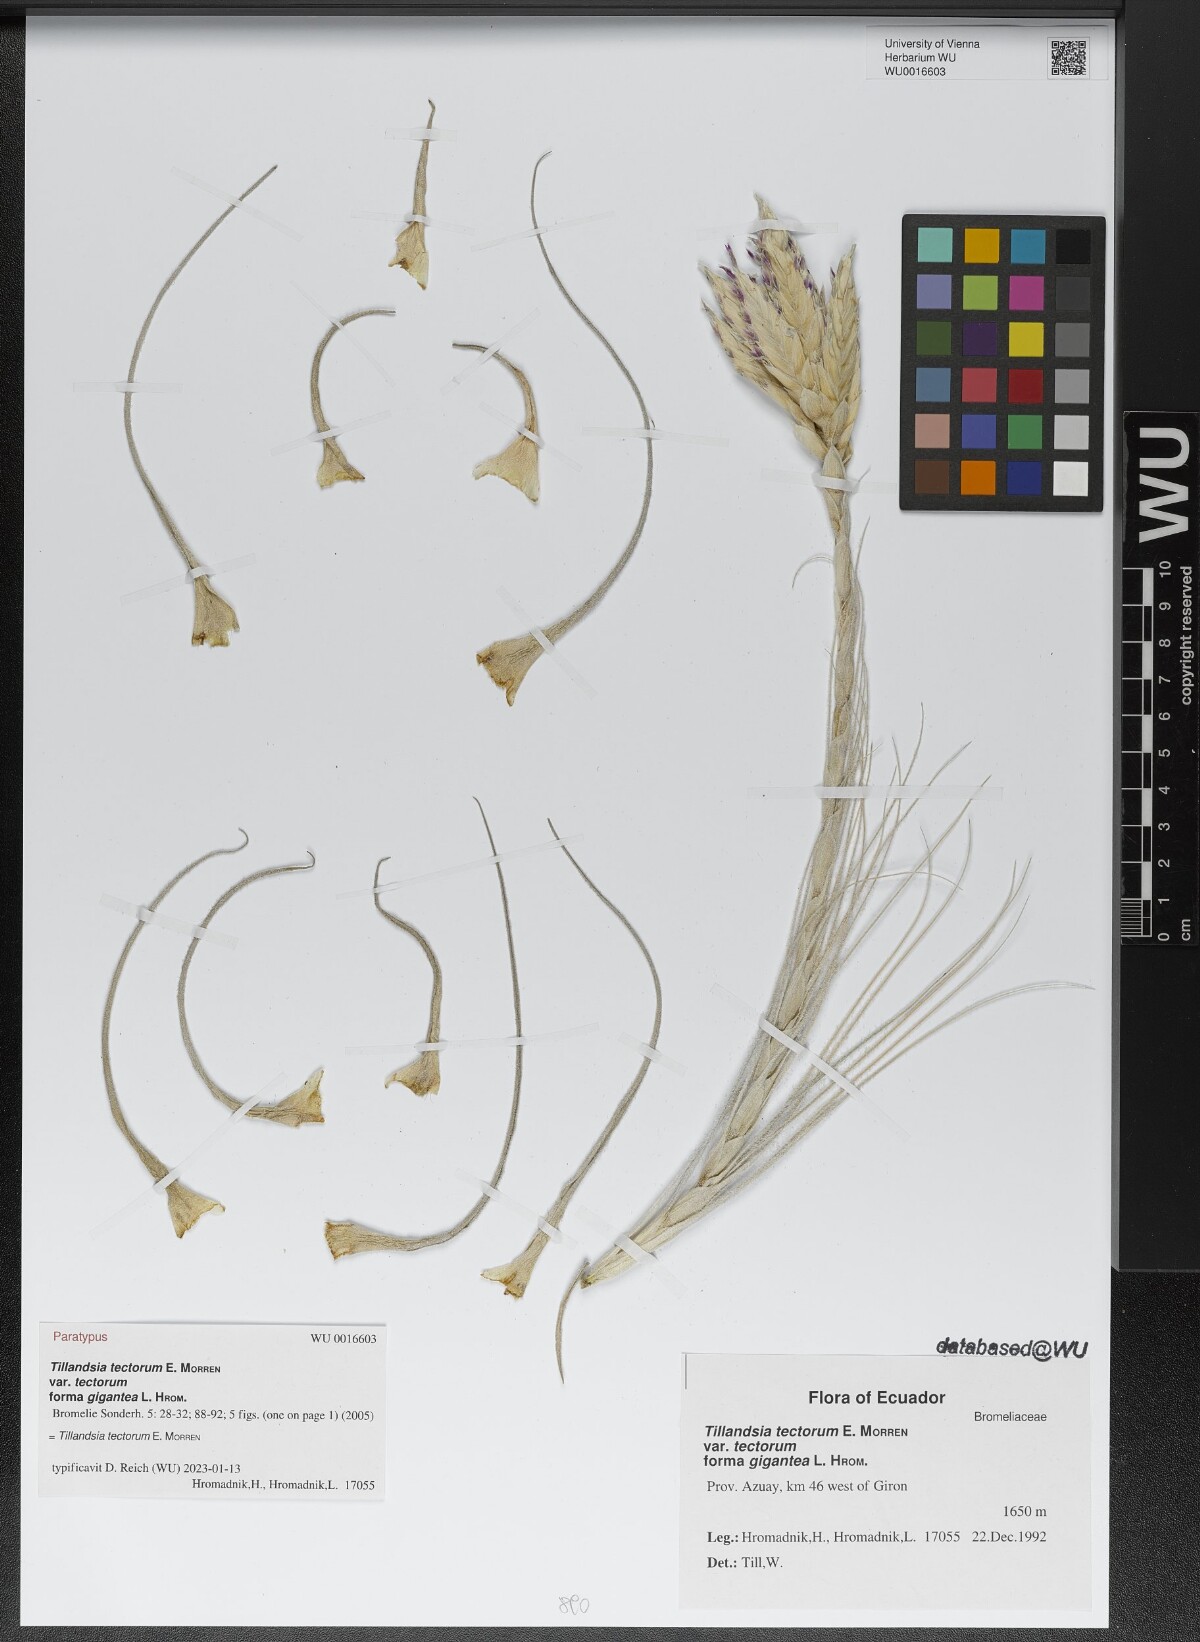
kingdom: Plantae
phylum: Tracheophyta
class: Liliopsida
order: Poales
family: Bromeliaceae
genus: Tillandsia
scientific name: Tillandsia tectorum
